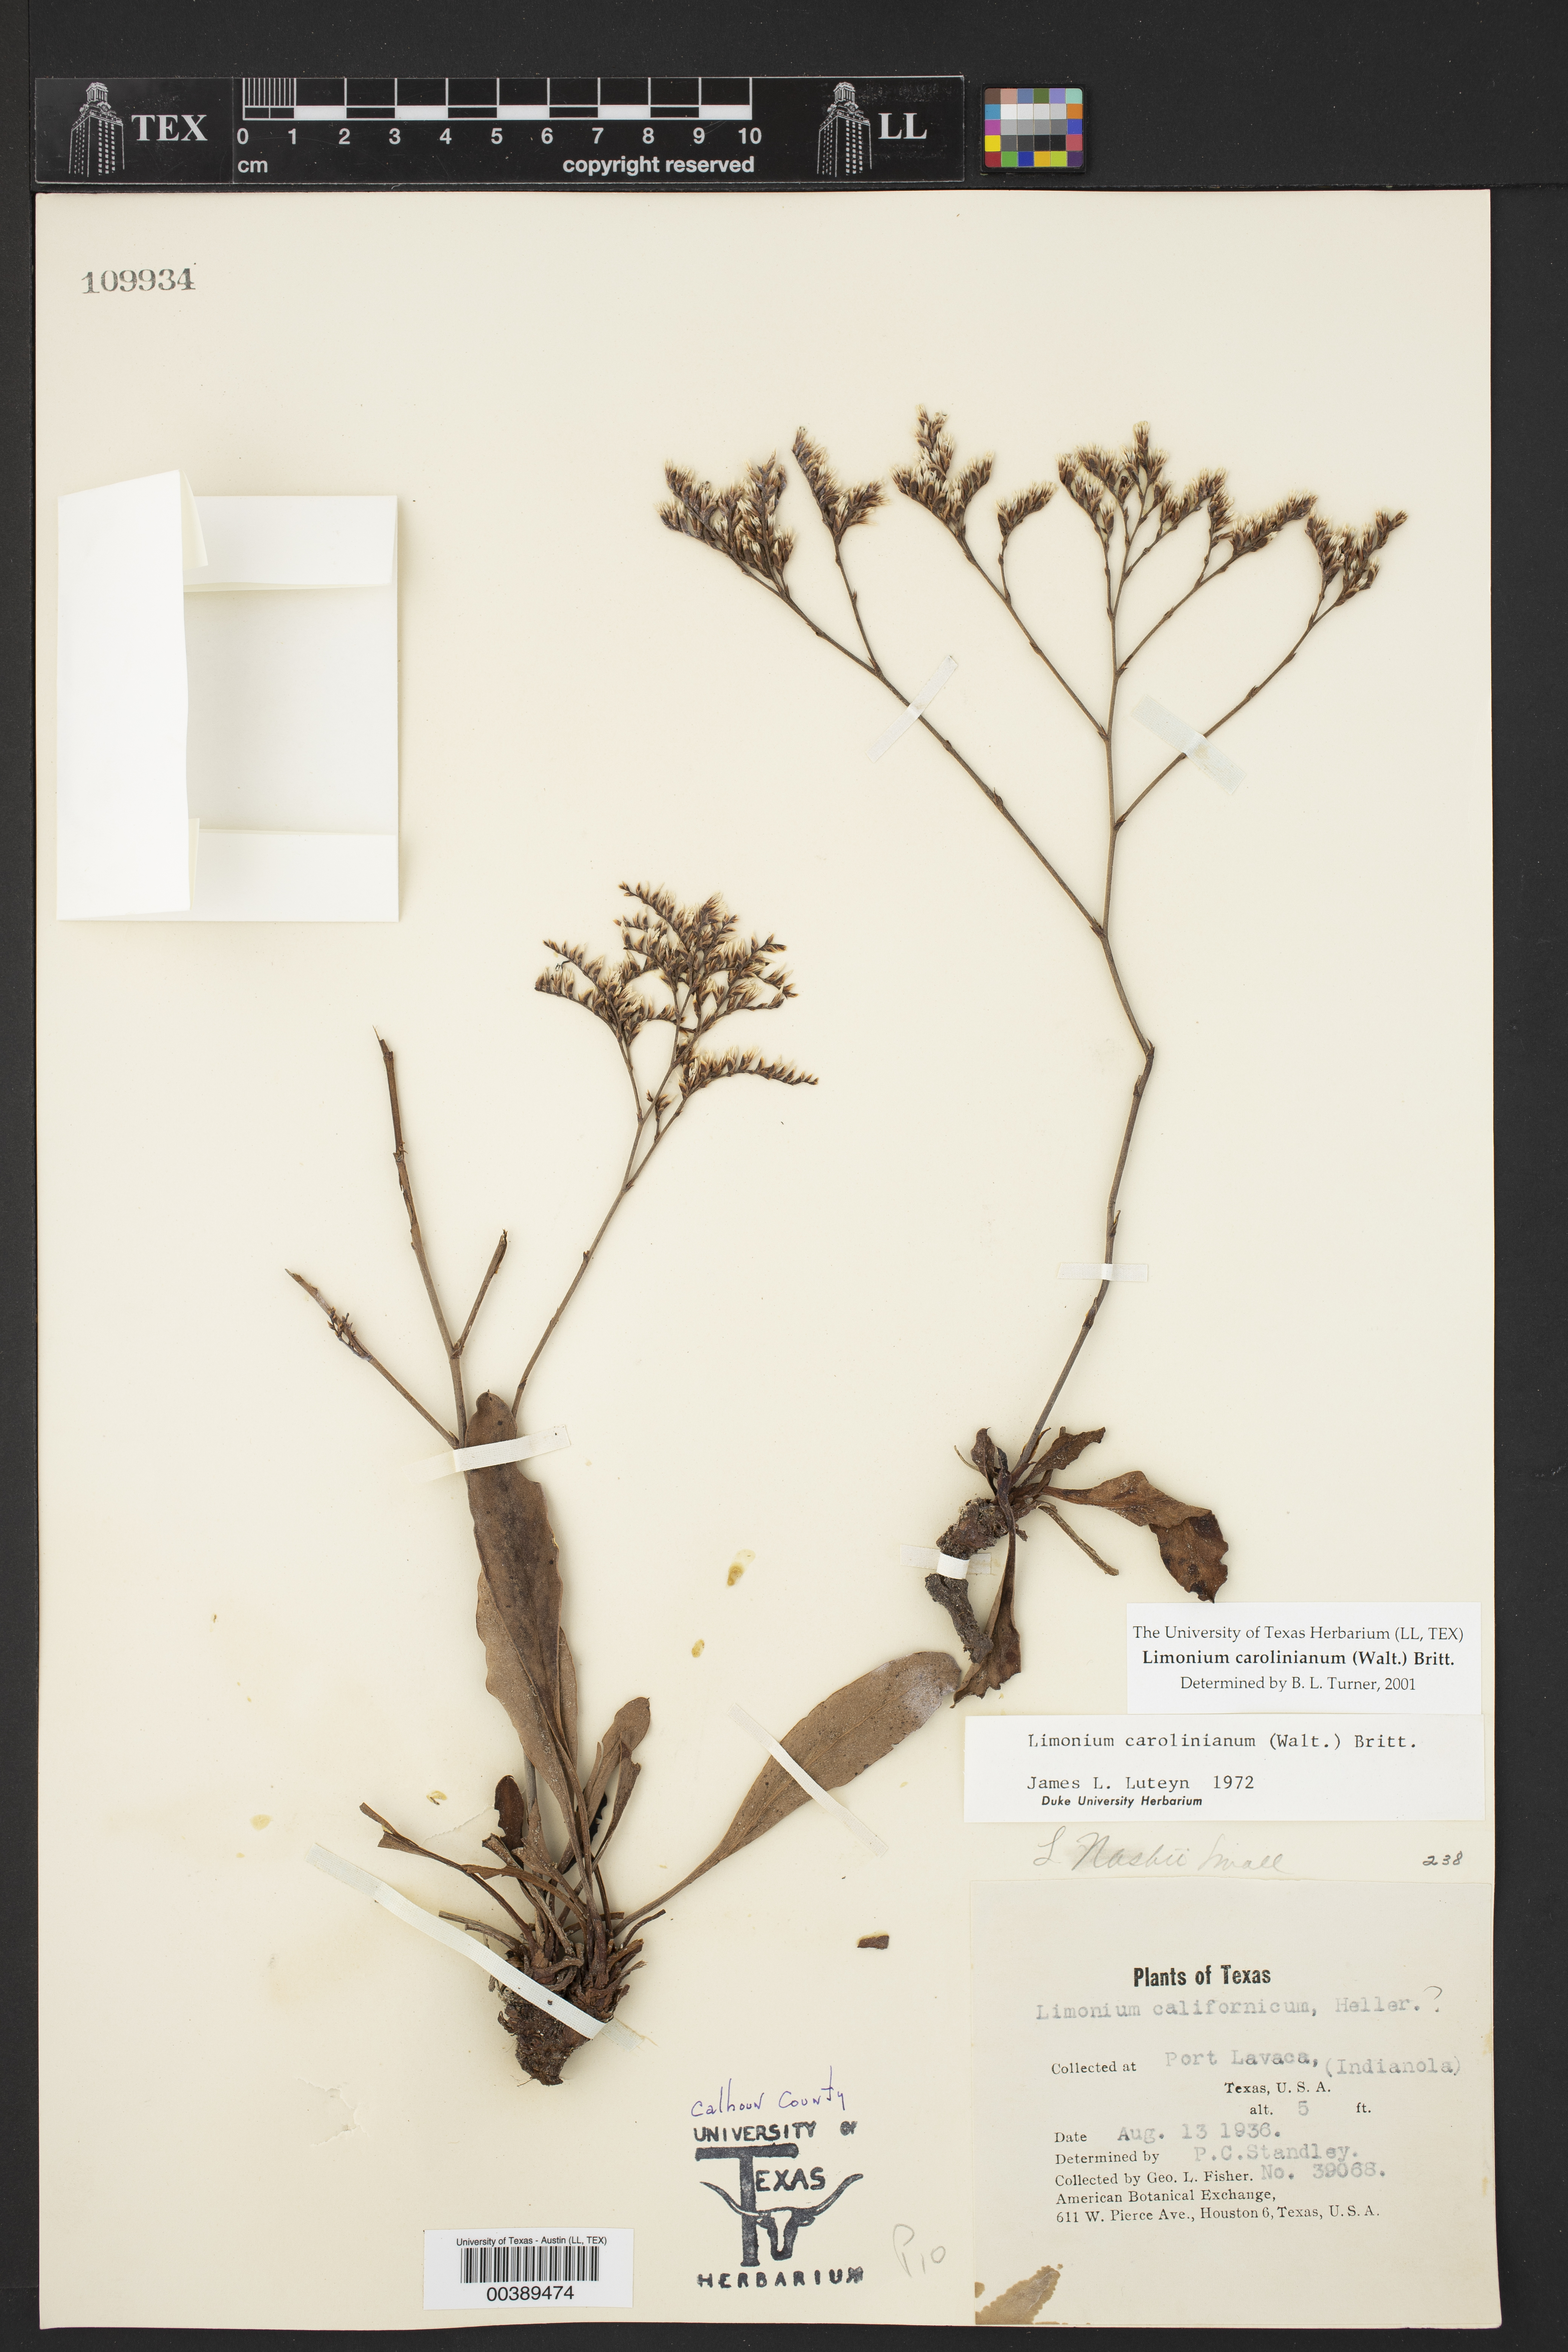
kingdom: Plantae
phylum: Tracheophyta
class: Magnoliopsida
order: Caryophyllales
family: Plumbaginaceae
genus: Limonium
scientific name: Limonium carolinianum
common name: Carolina sea lavender
